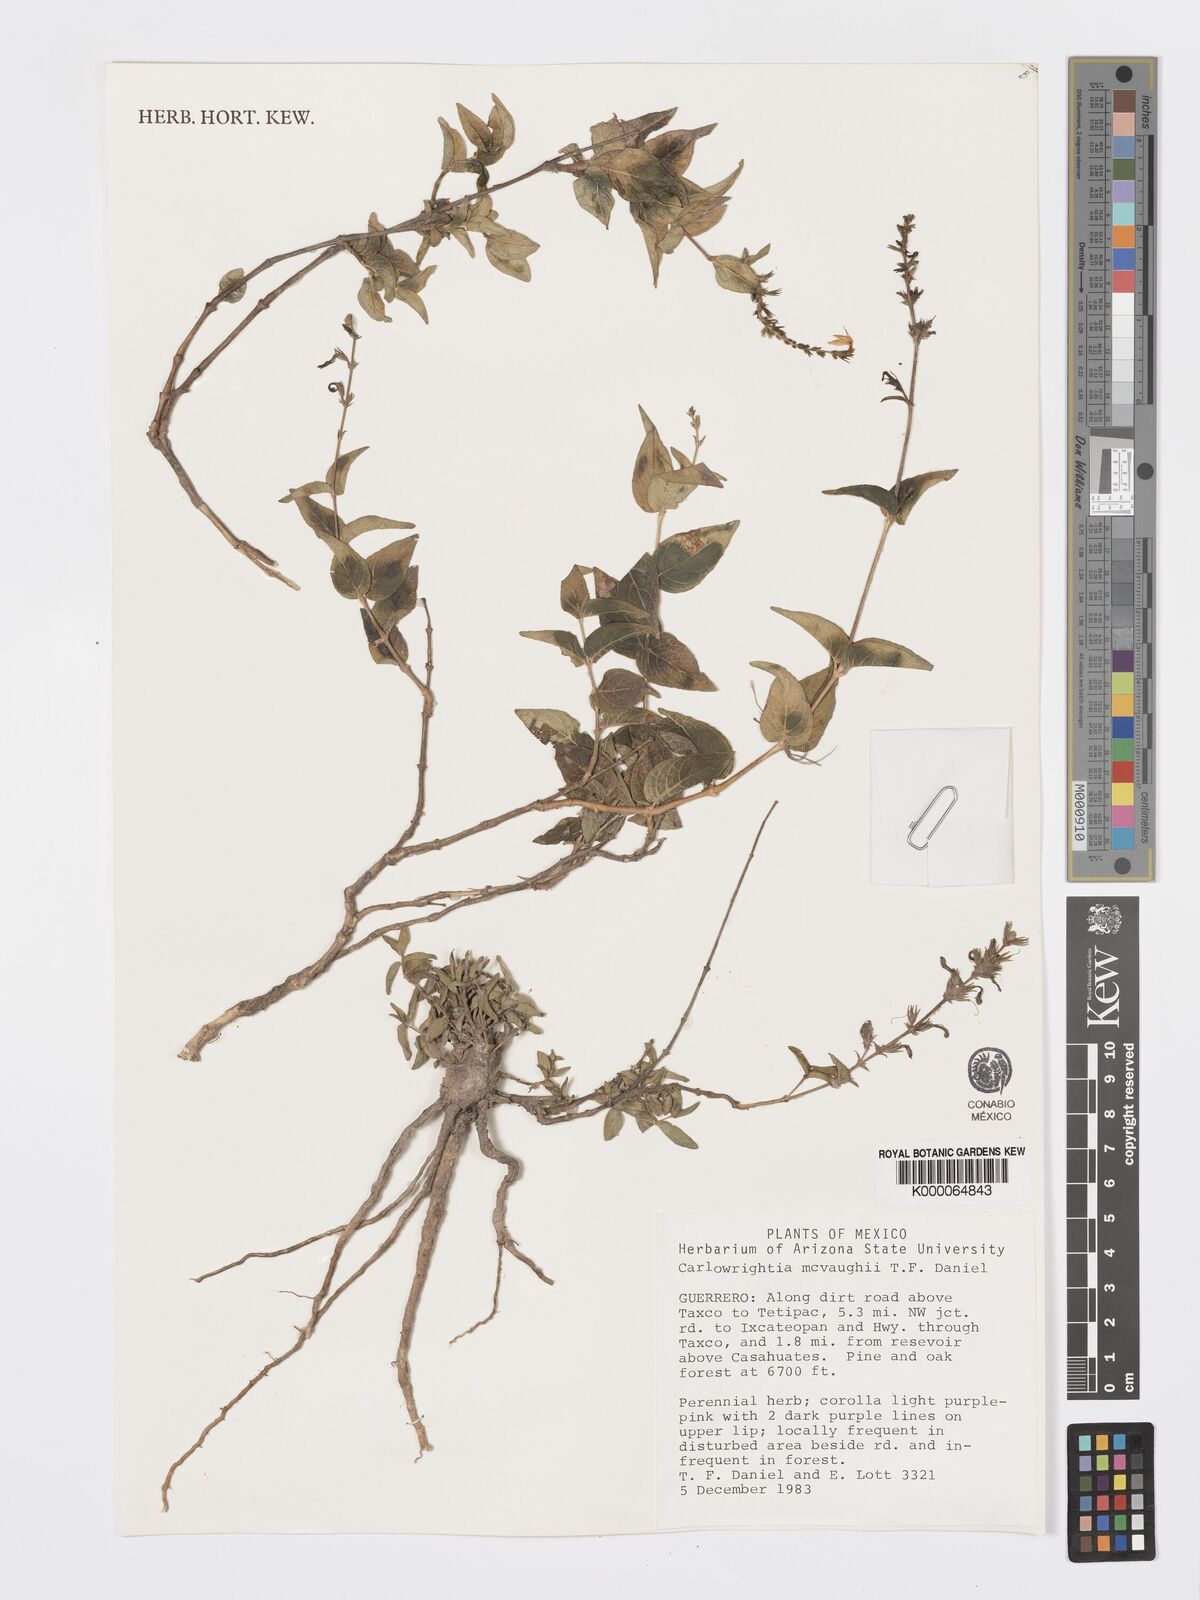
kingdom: Plantae
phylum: Tracheophyta
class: Magnoliopsida
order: Lamiales
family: Acanthaceae
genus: Carlowrightia
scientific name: Carlowrightia mcvaughii
